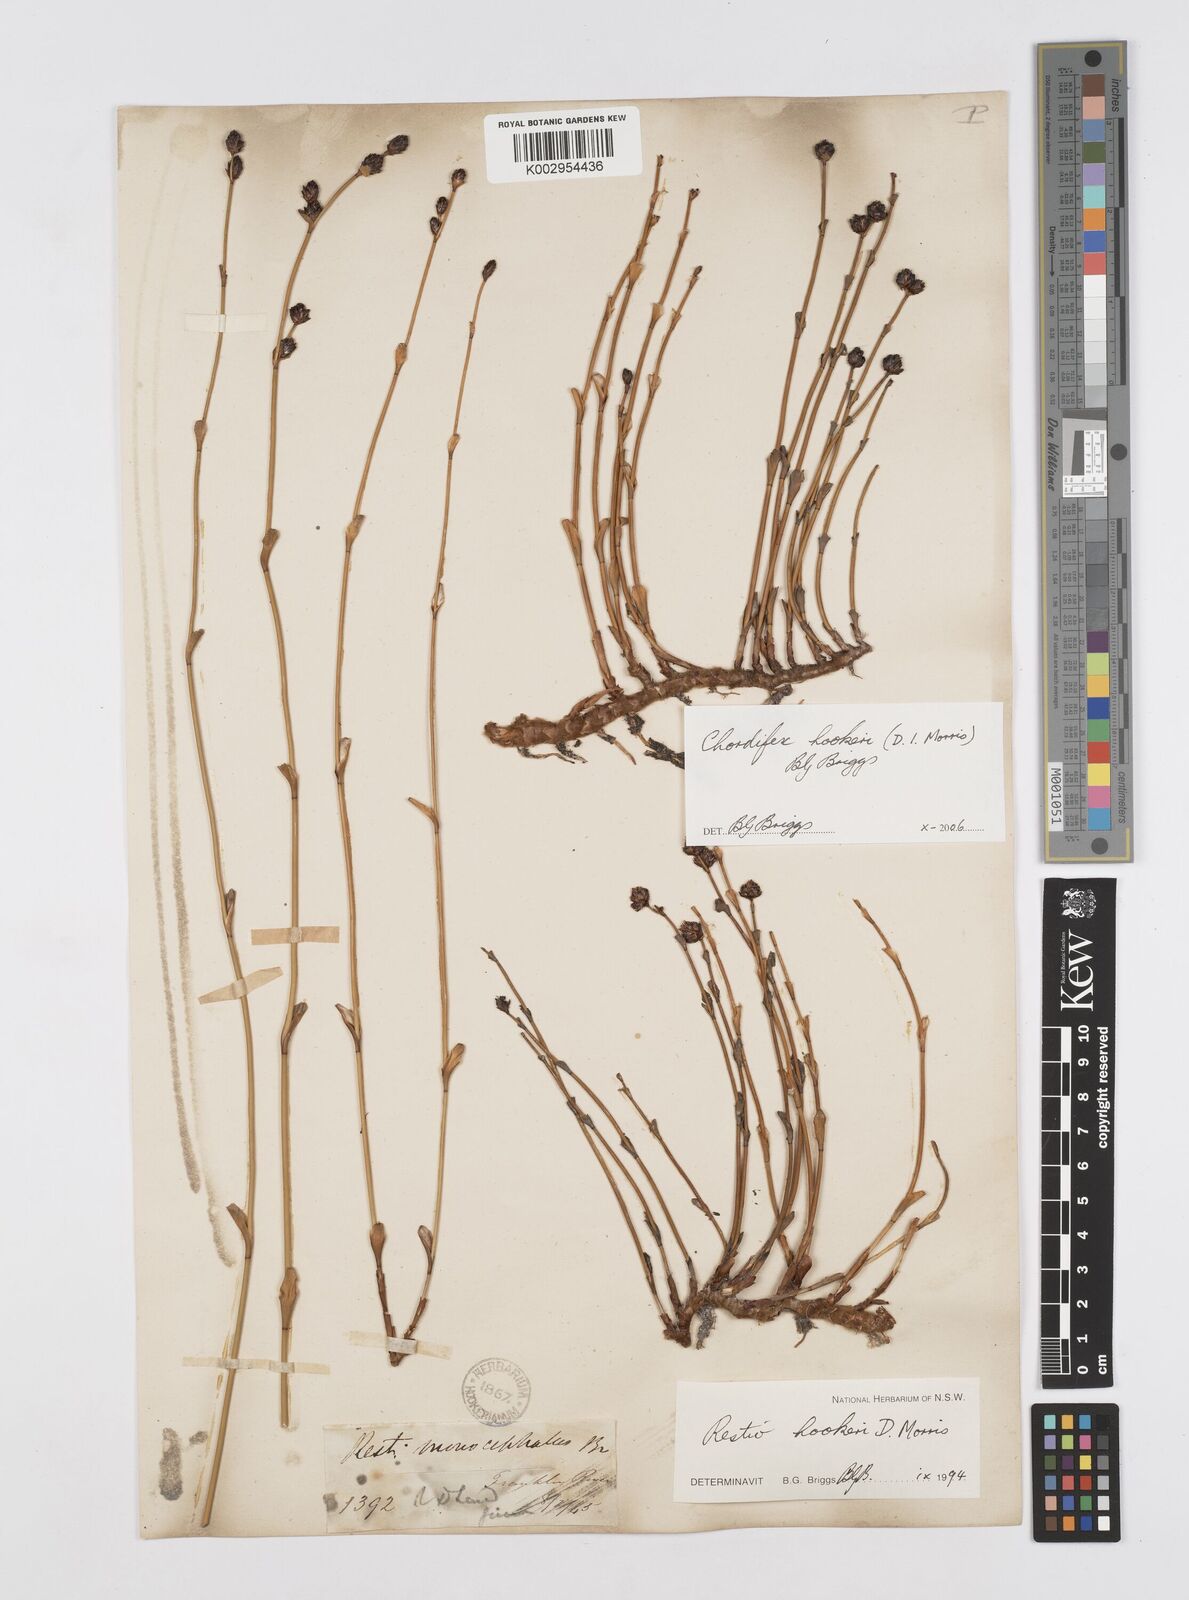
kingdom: Plantae
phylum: Tracheophyta
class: Liliopsida
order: Poales
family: Restionaceae
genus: Chordifex
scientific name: Chordifex hookeri
